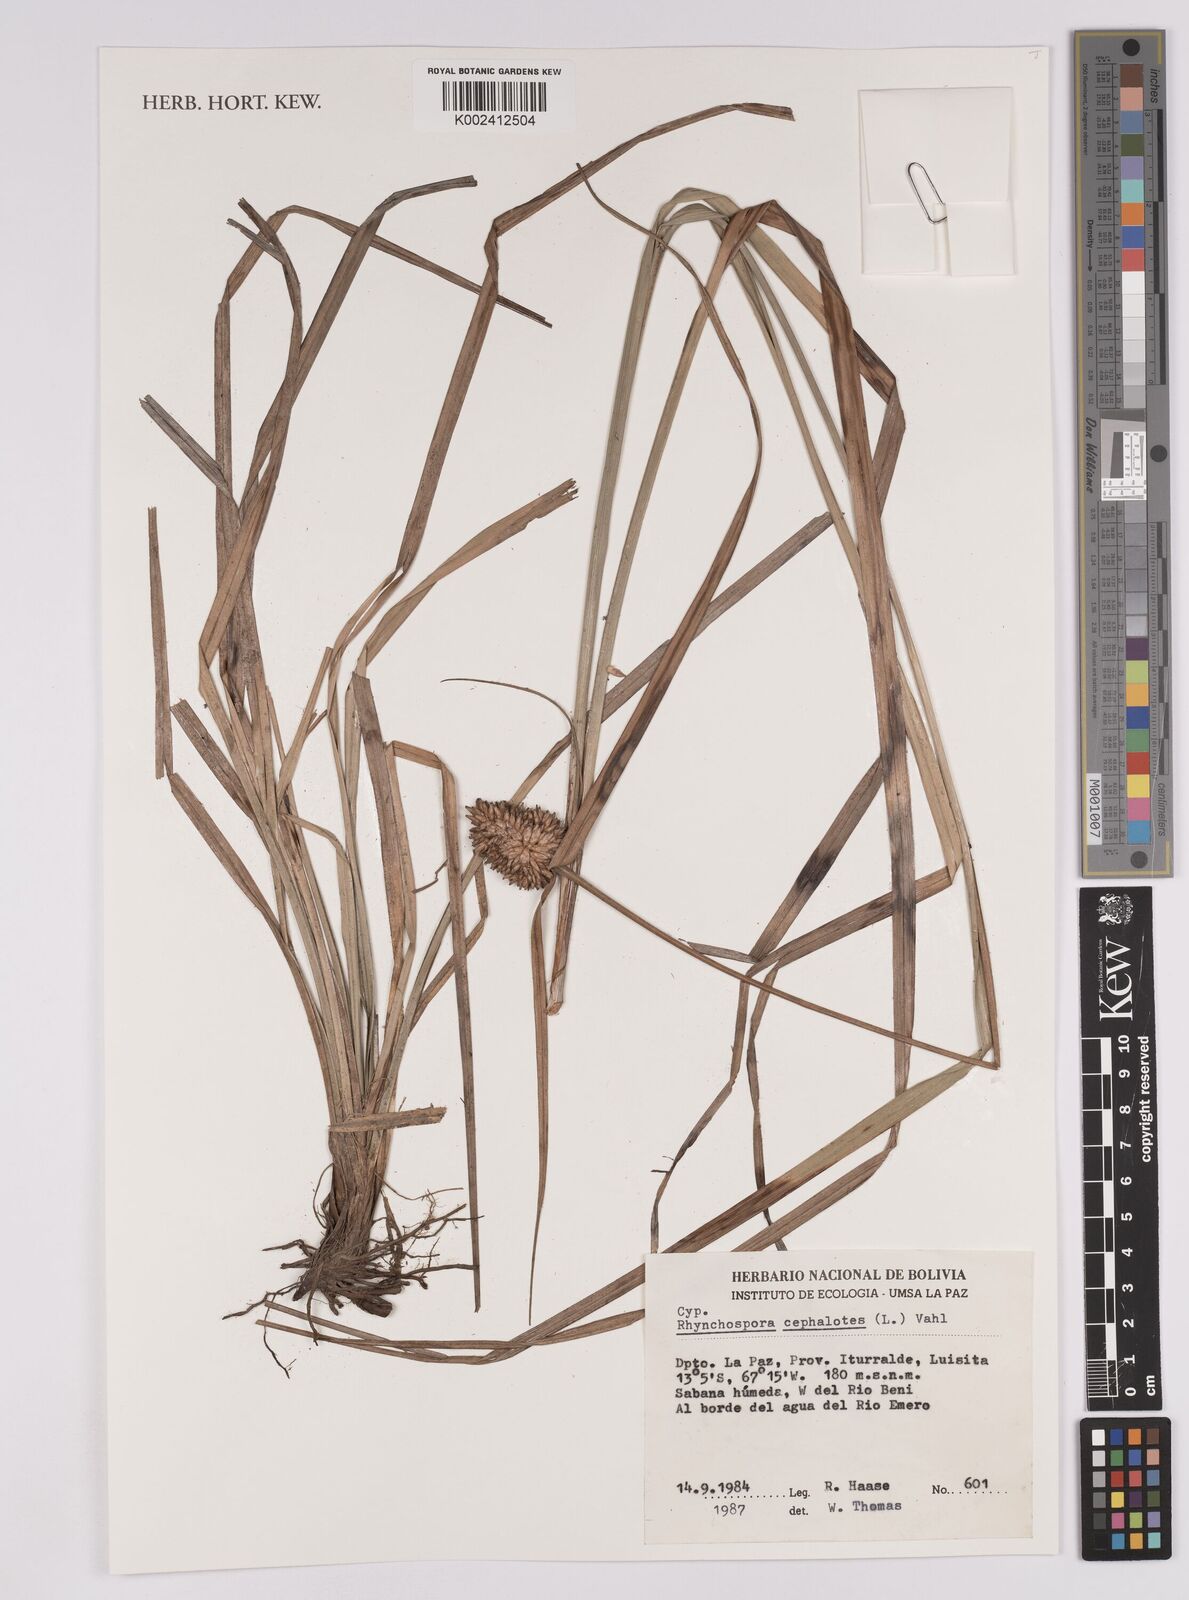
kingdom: Plantae
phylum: Tracheophyta
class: Liliopsida
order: Poales
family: Cyperaceae
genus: Rhynchospora
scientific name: Rhynchospora cephalotes
